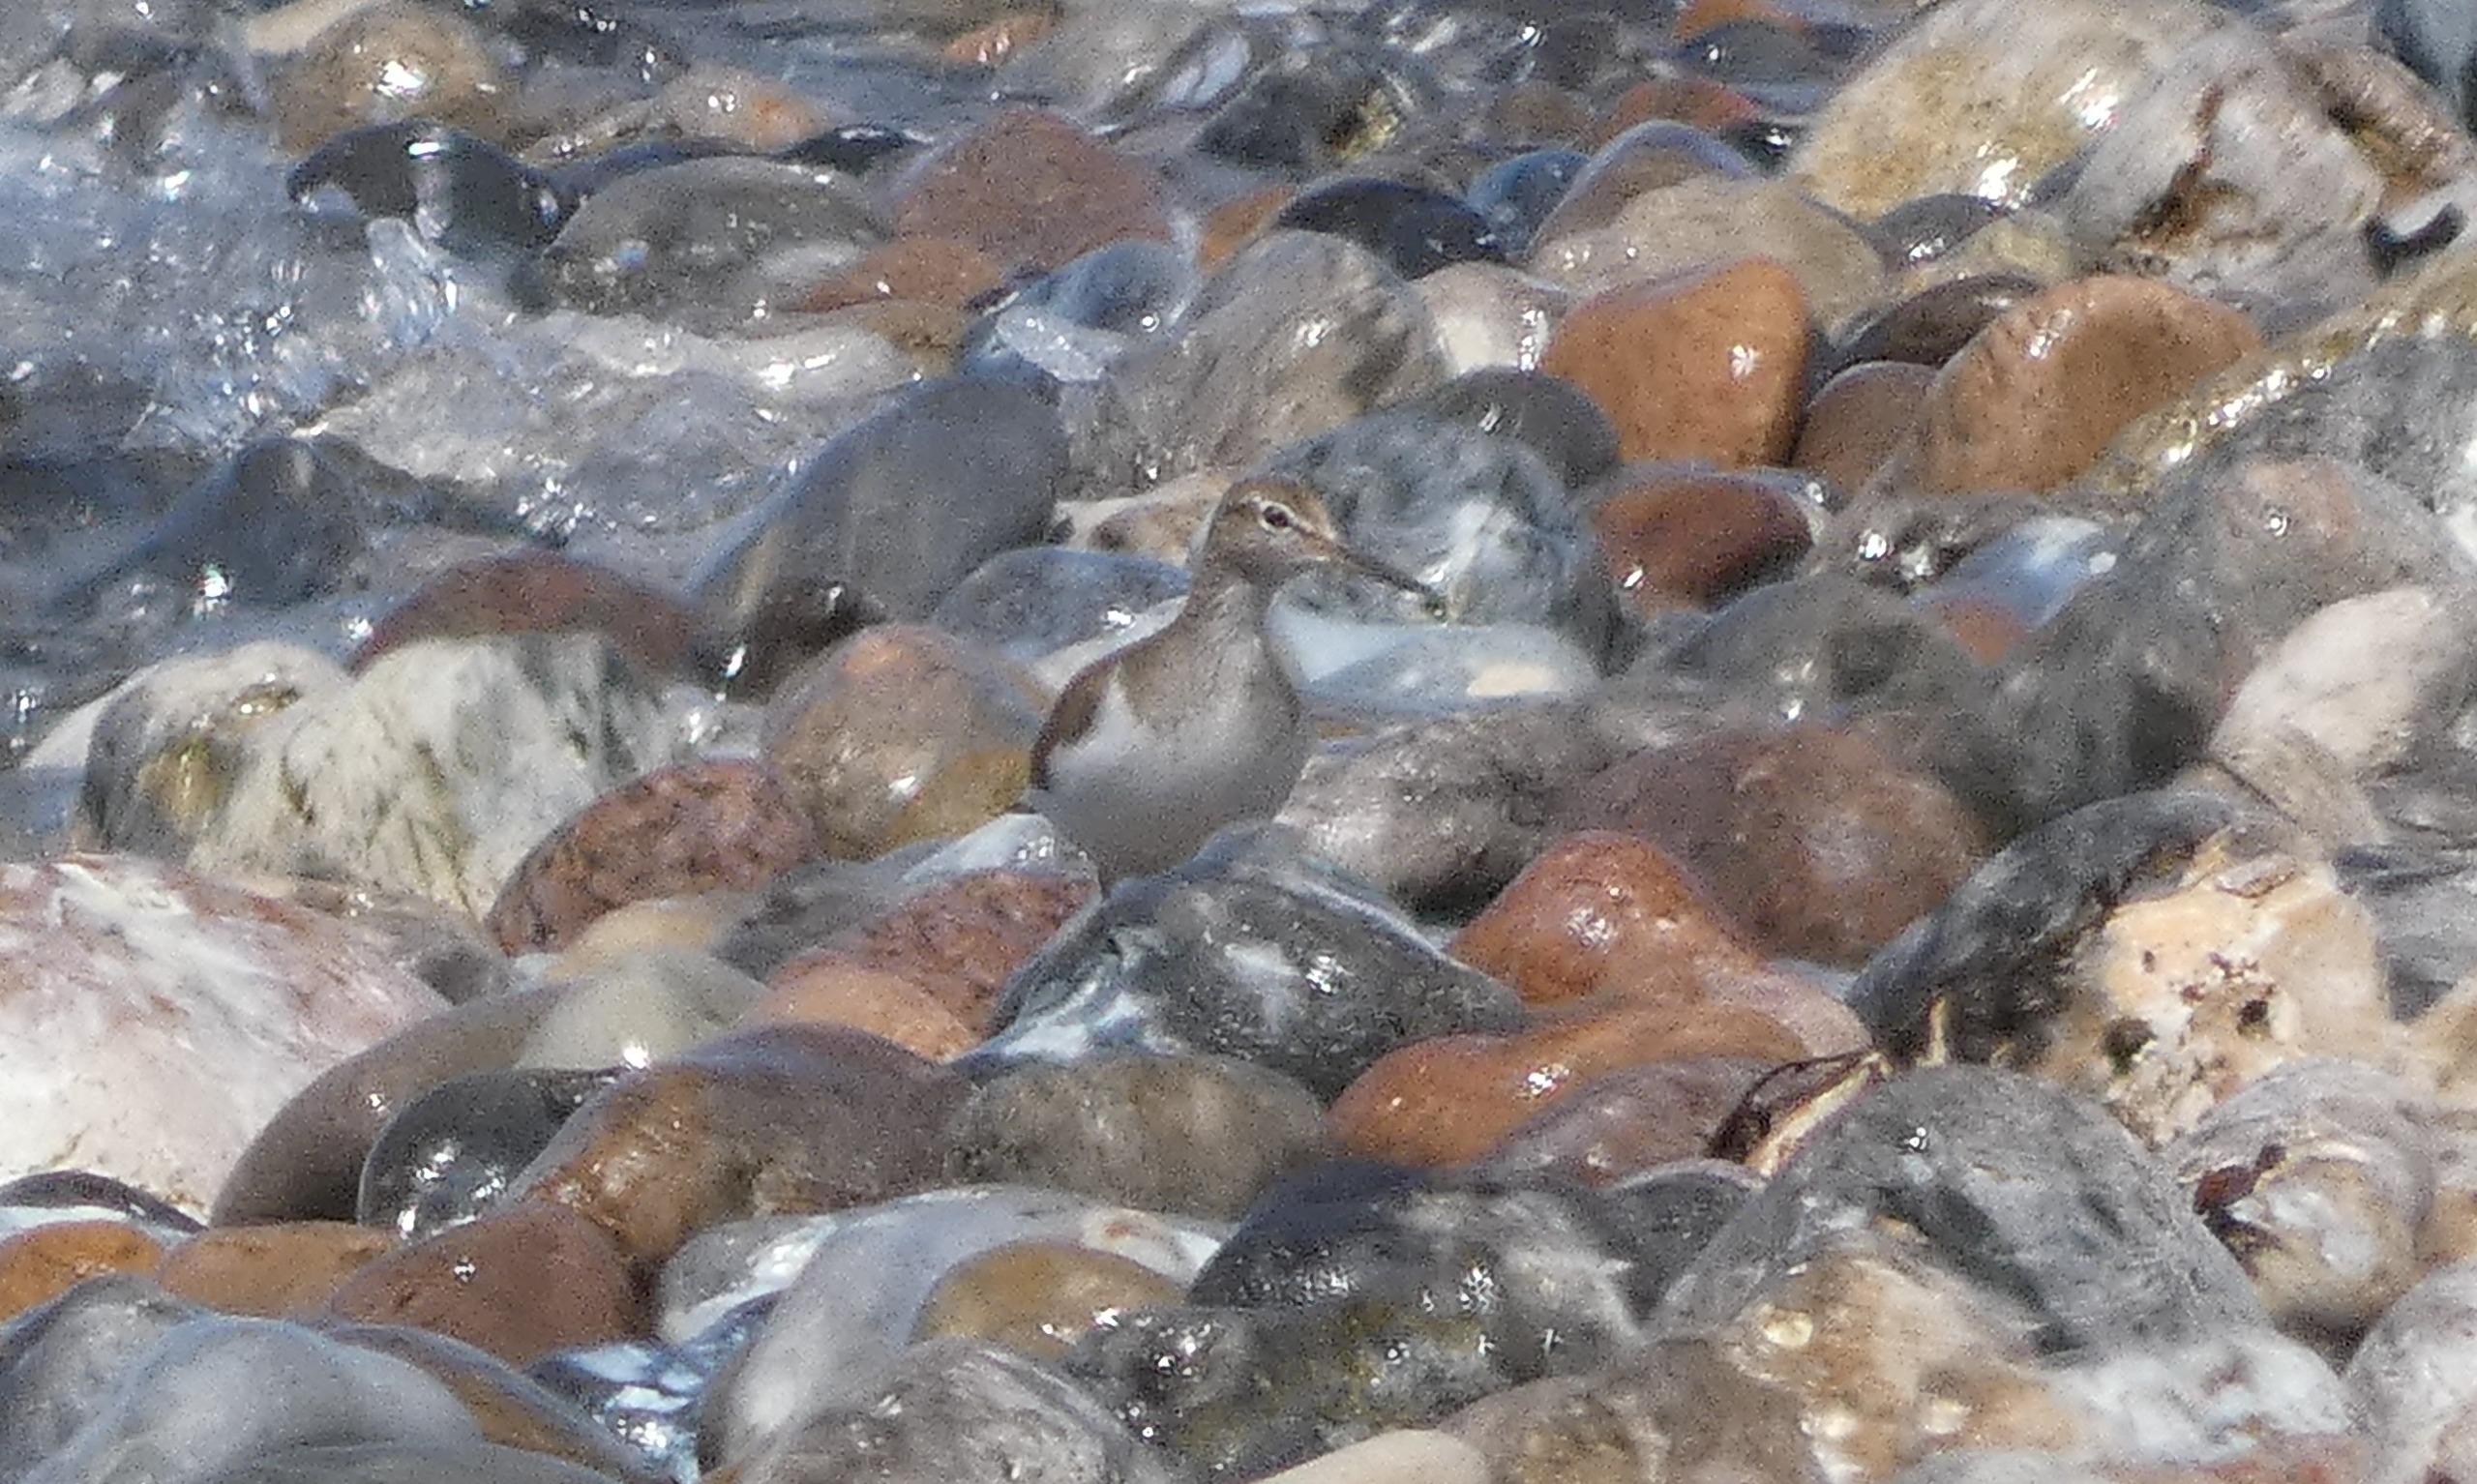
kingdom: Animalia
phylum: Chordata
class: Aves
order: Charadriiformes
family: Scolopacidae
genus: Actitis
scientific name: Actitis hypoleucos
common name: Mudderklire
